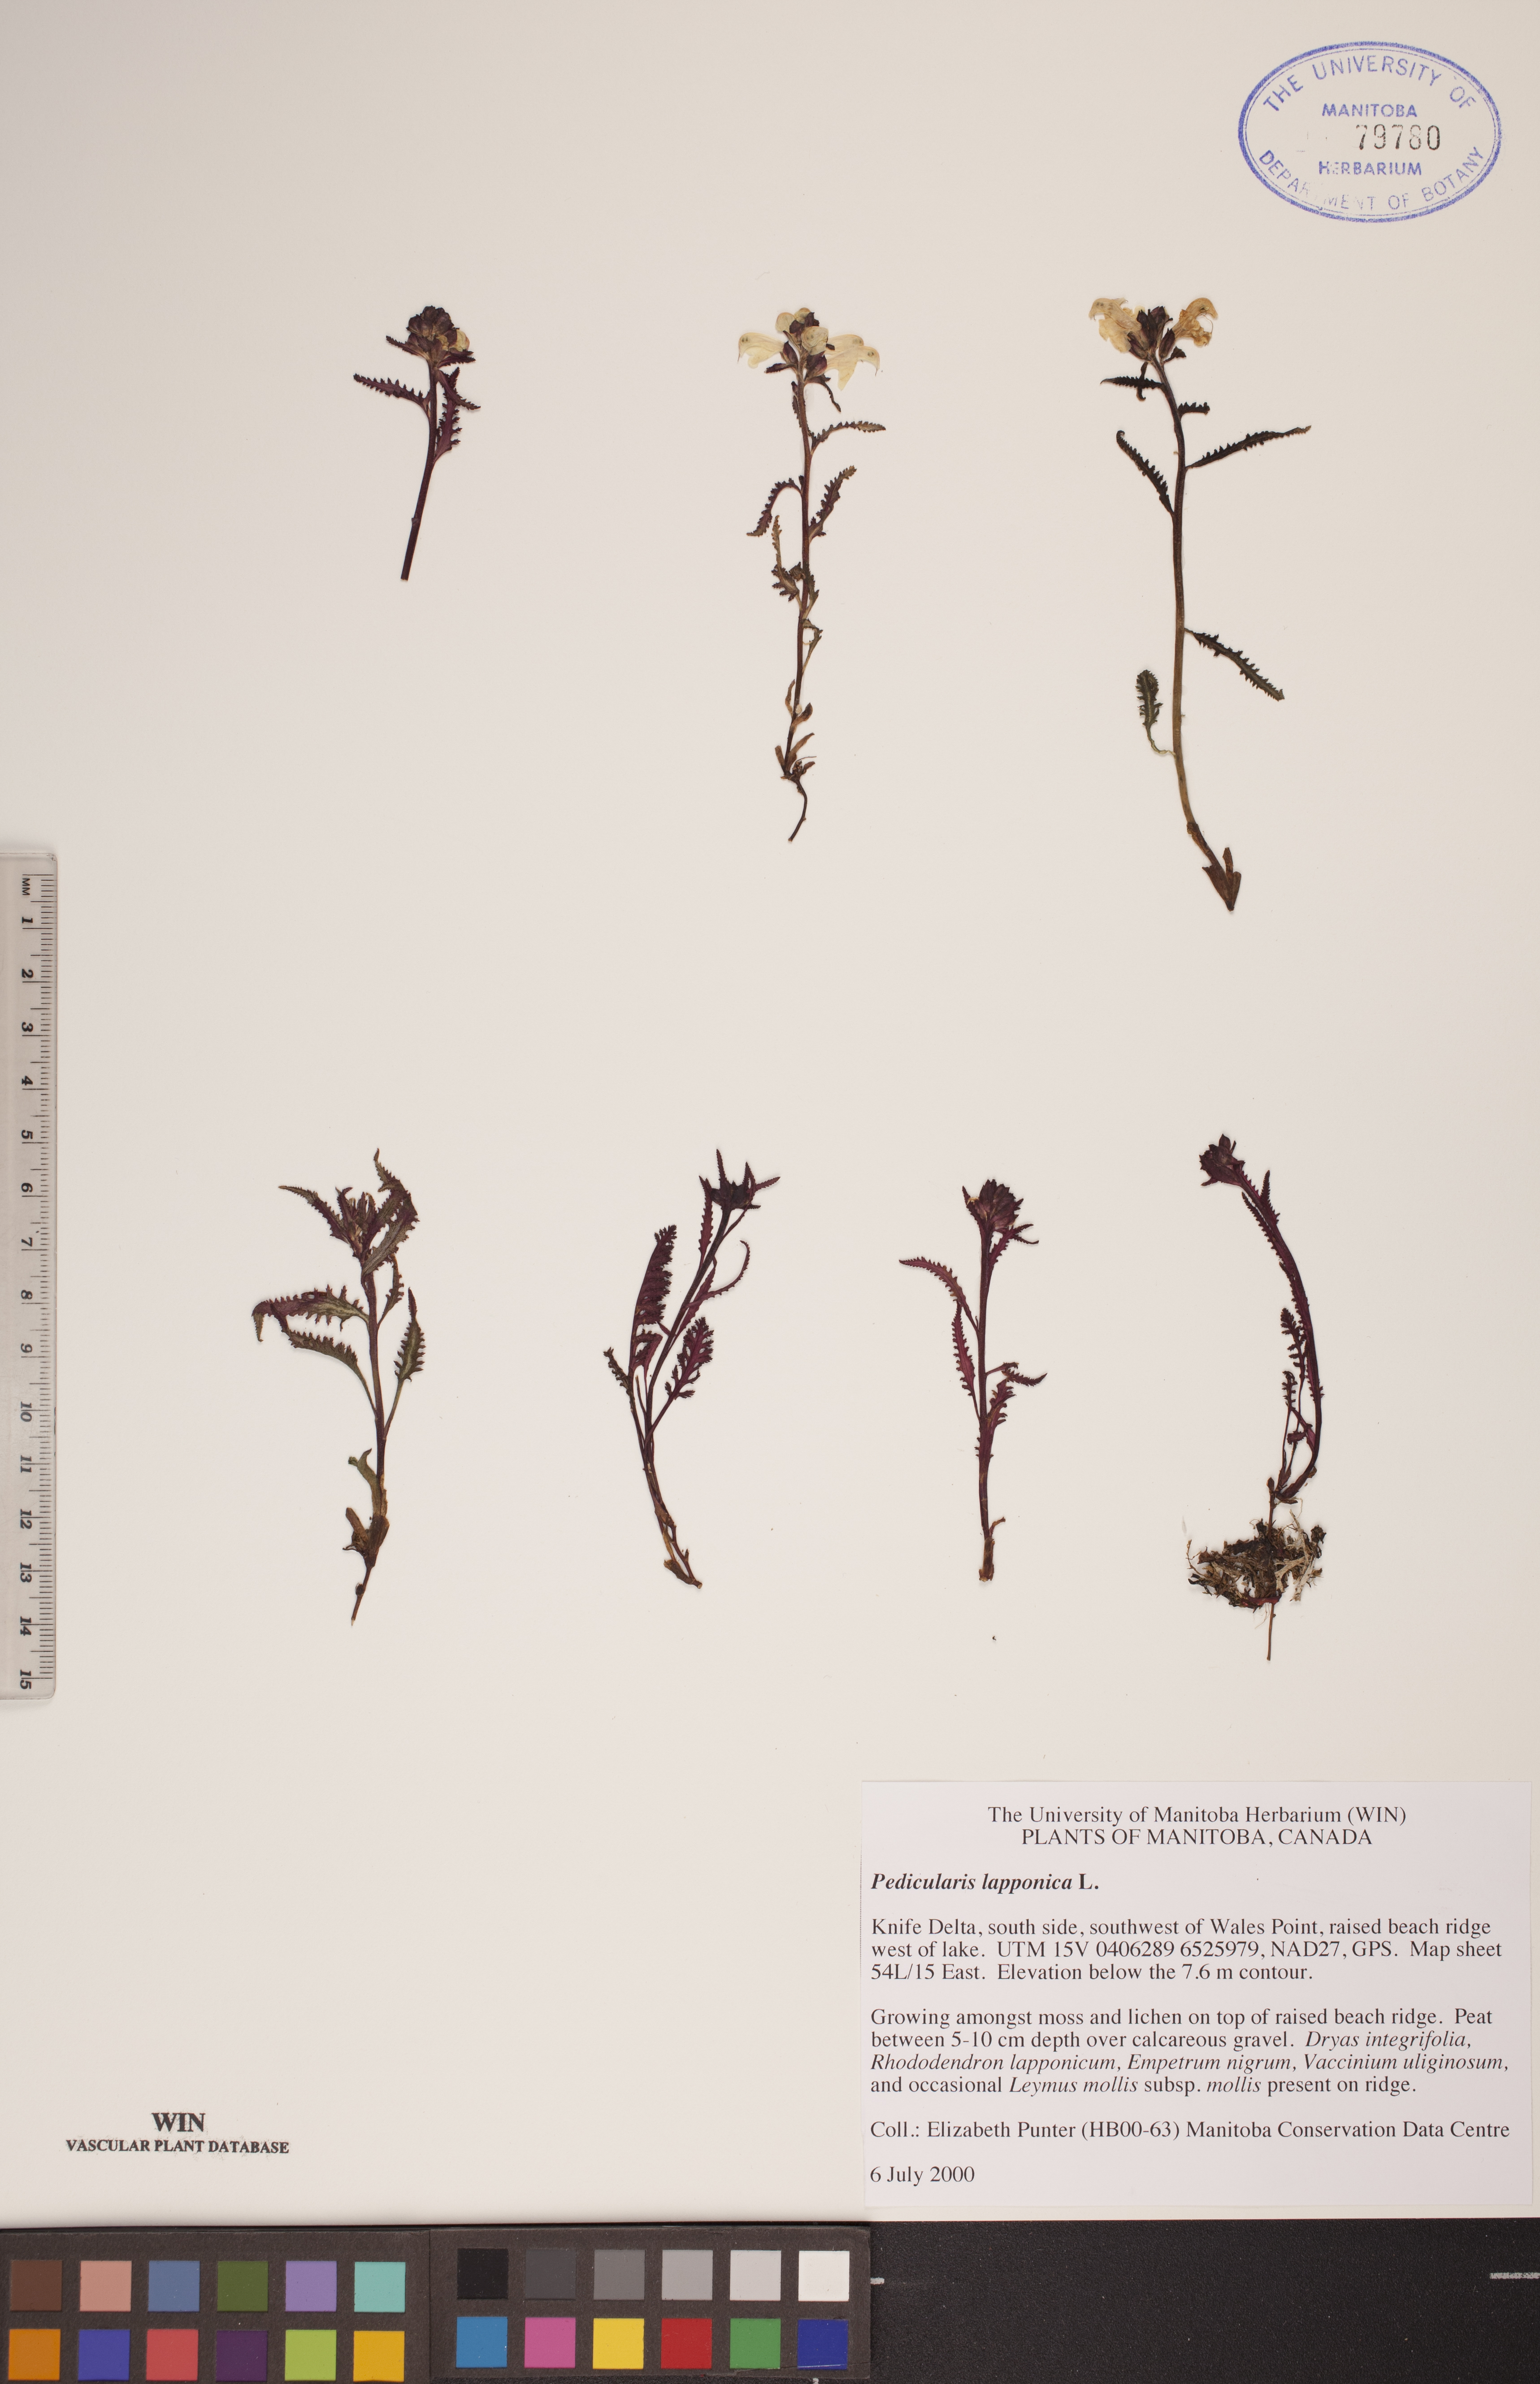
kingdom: Plantae
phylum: Tracheophyta
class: Magnoliopsida
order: Lamiales
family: Orobanchaceae
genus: Pedicularis
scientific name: Pedicularis lapponica
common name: Lapland lousewort
